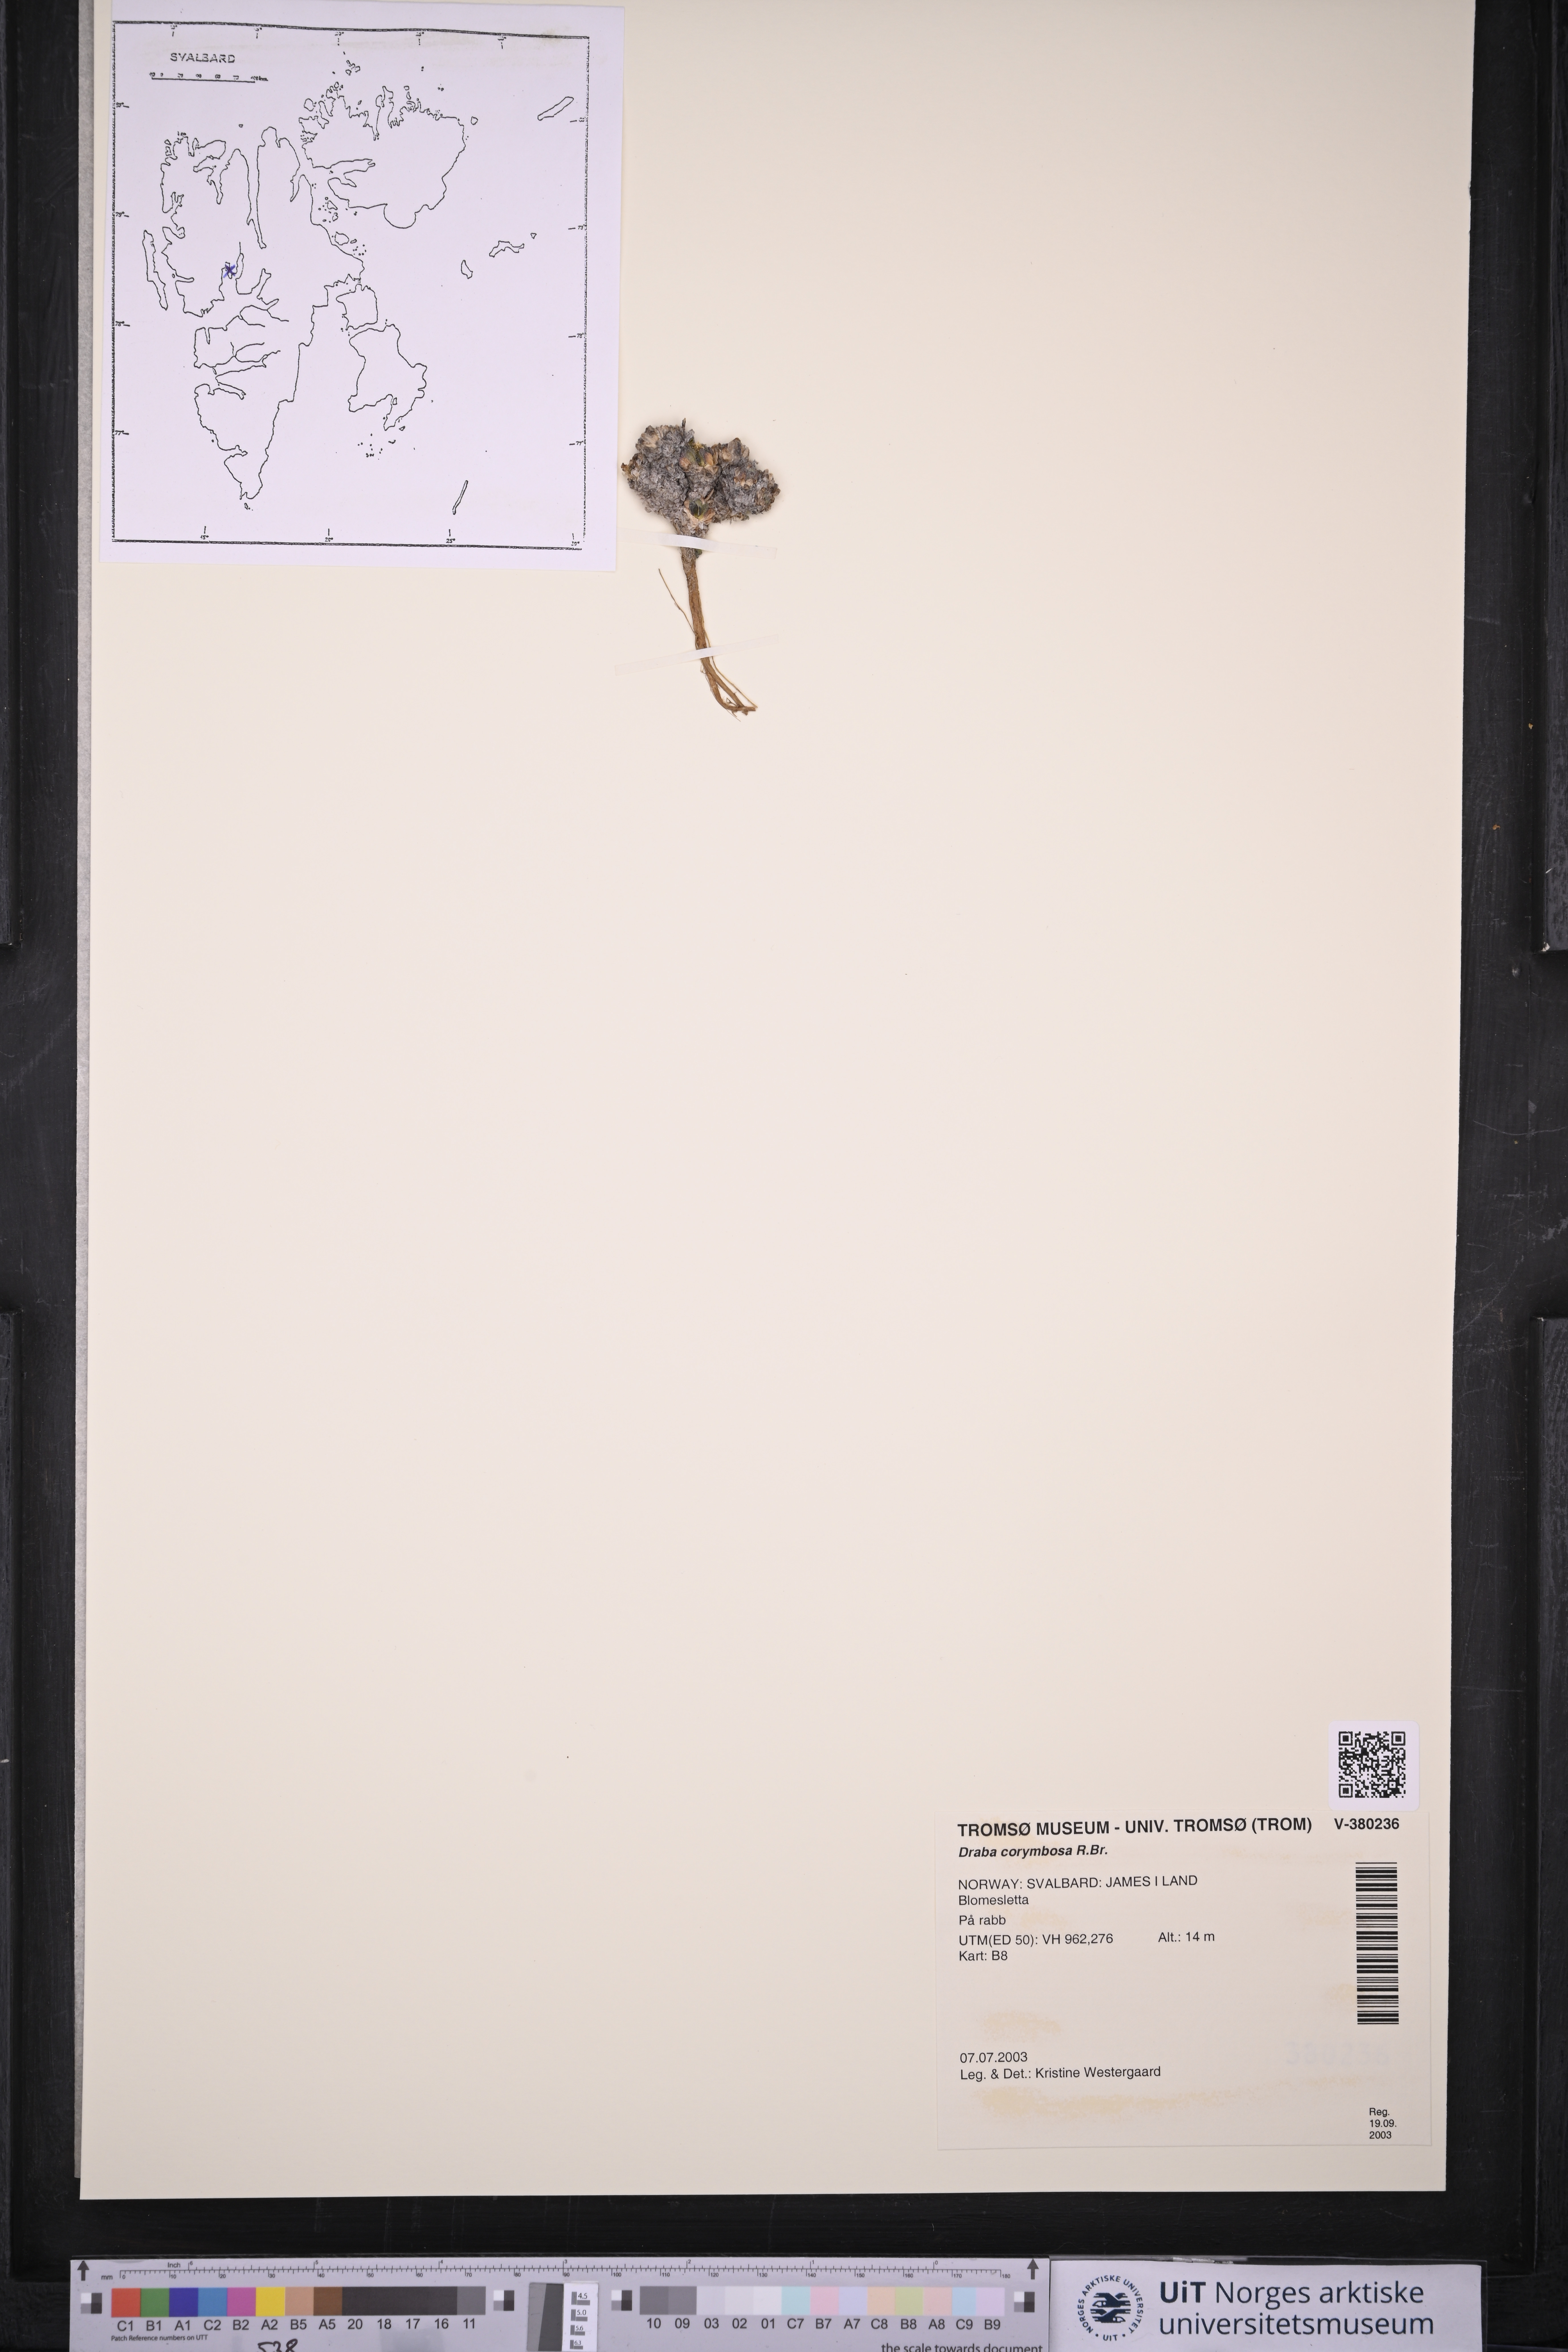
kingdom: Plantae
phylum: Tracheophyta
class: Magnoliopsida
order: Brassicales
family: Brassicaceae
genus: Draba
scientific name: Draba corymbosa
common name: Cushion whitlow-grass
